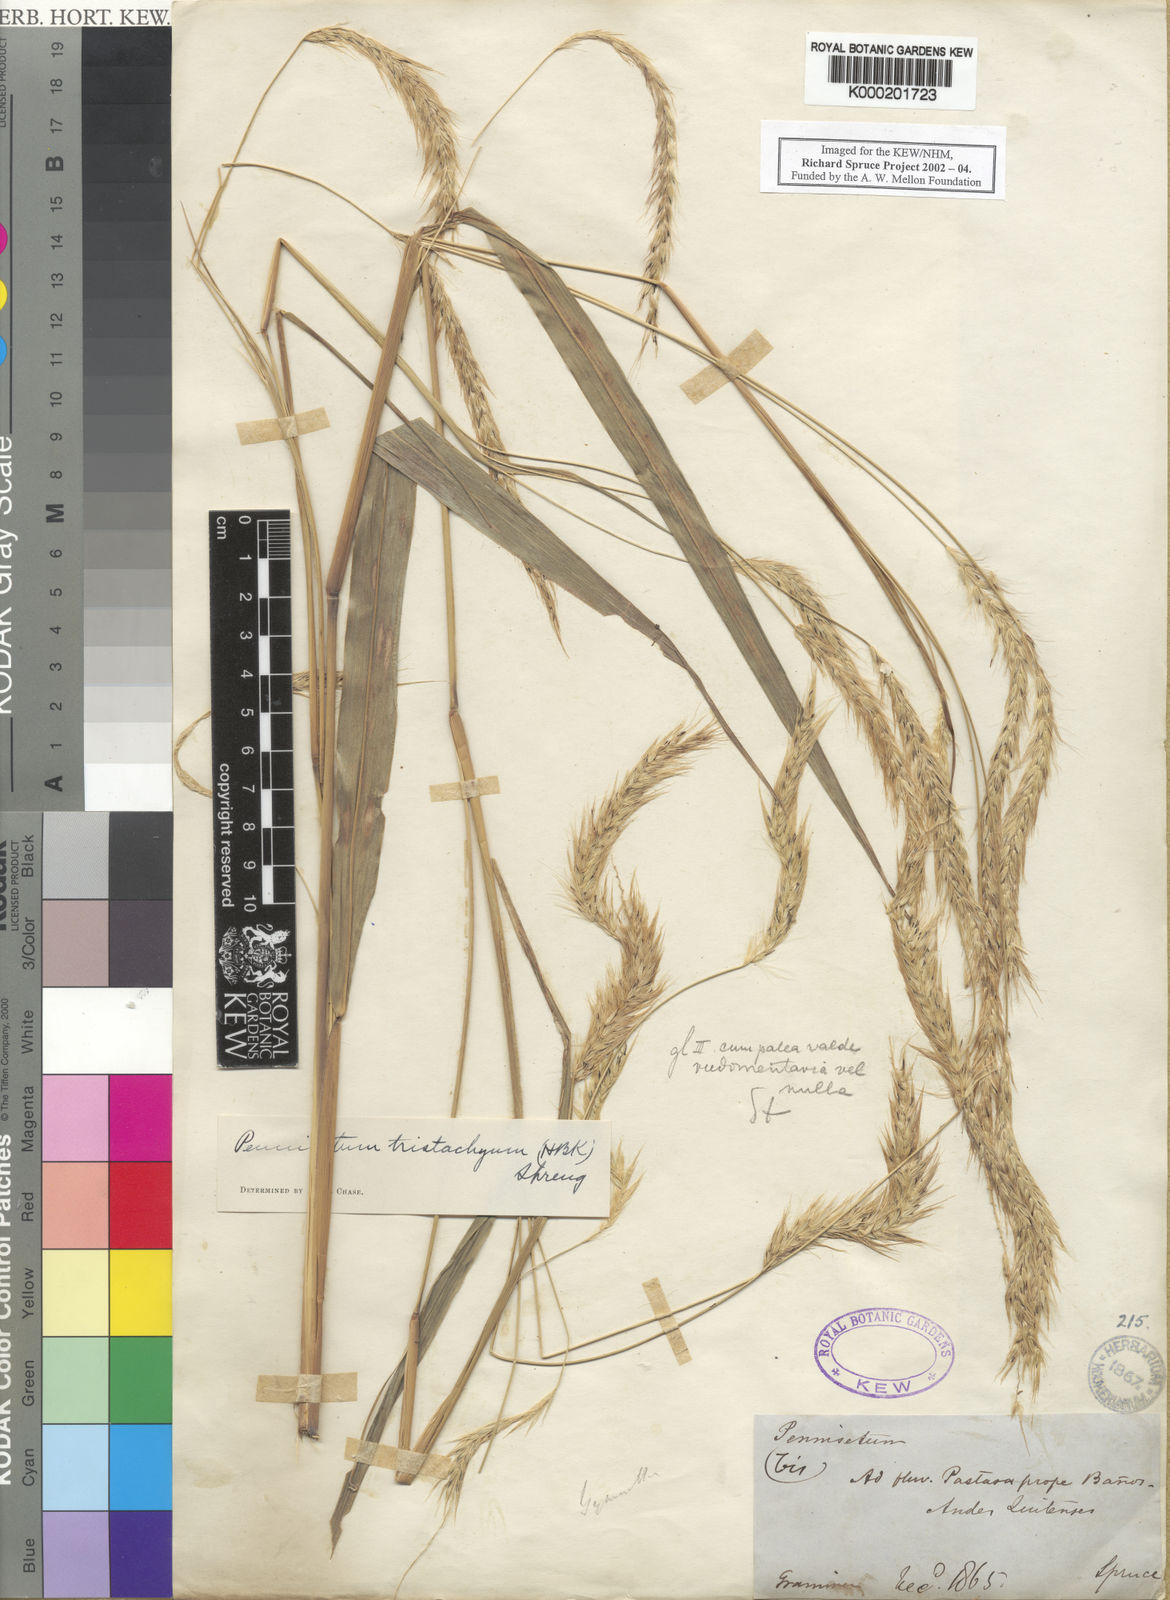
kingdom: Plantae
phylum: Tracheophyta
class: Liliopsida
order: Poales
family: Poaceae
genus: Cenchrus
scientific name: Cenchrus tristachyus
